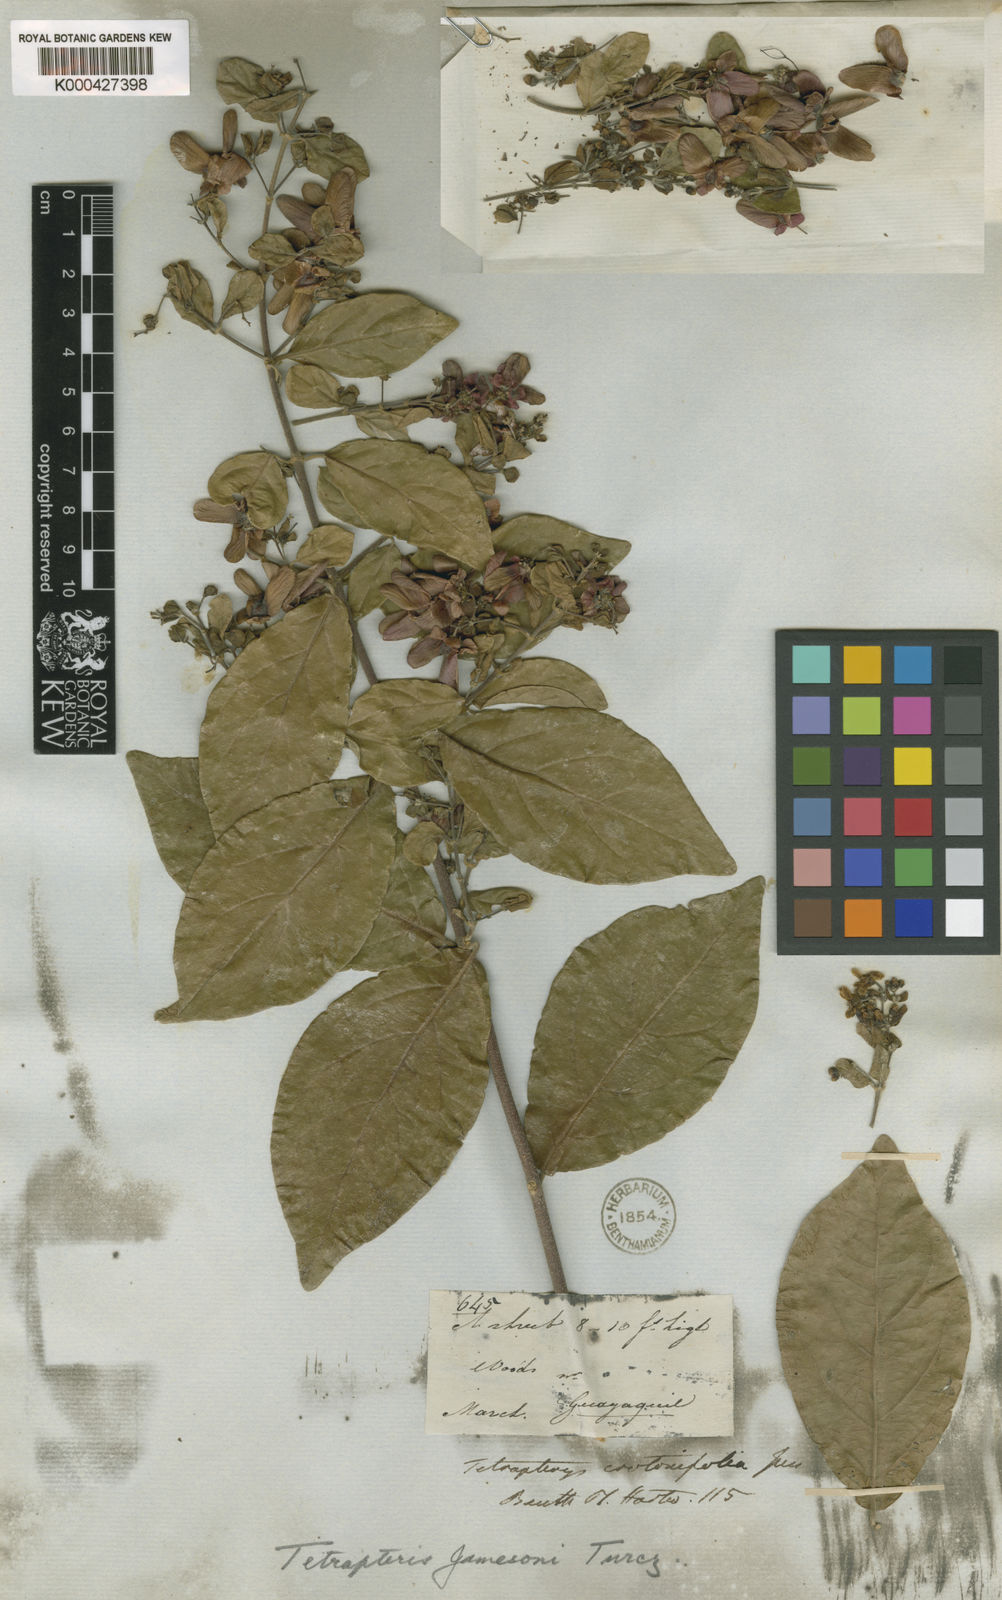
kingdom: Plantae
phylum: Tracheophyta
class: Magnoliopsida
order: Malpighiales
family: Malpighiaceae
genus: Tetrapterys
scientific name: Tetrapterys jamesonii
